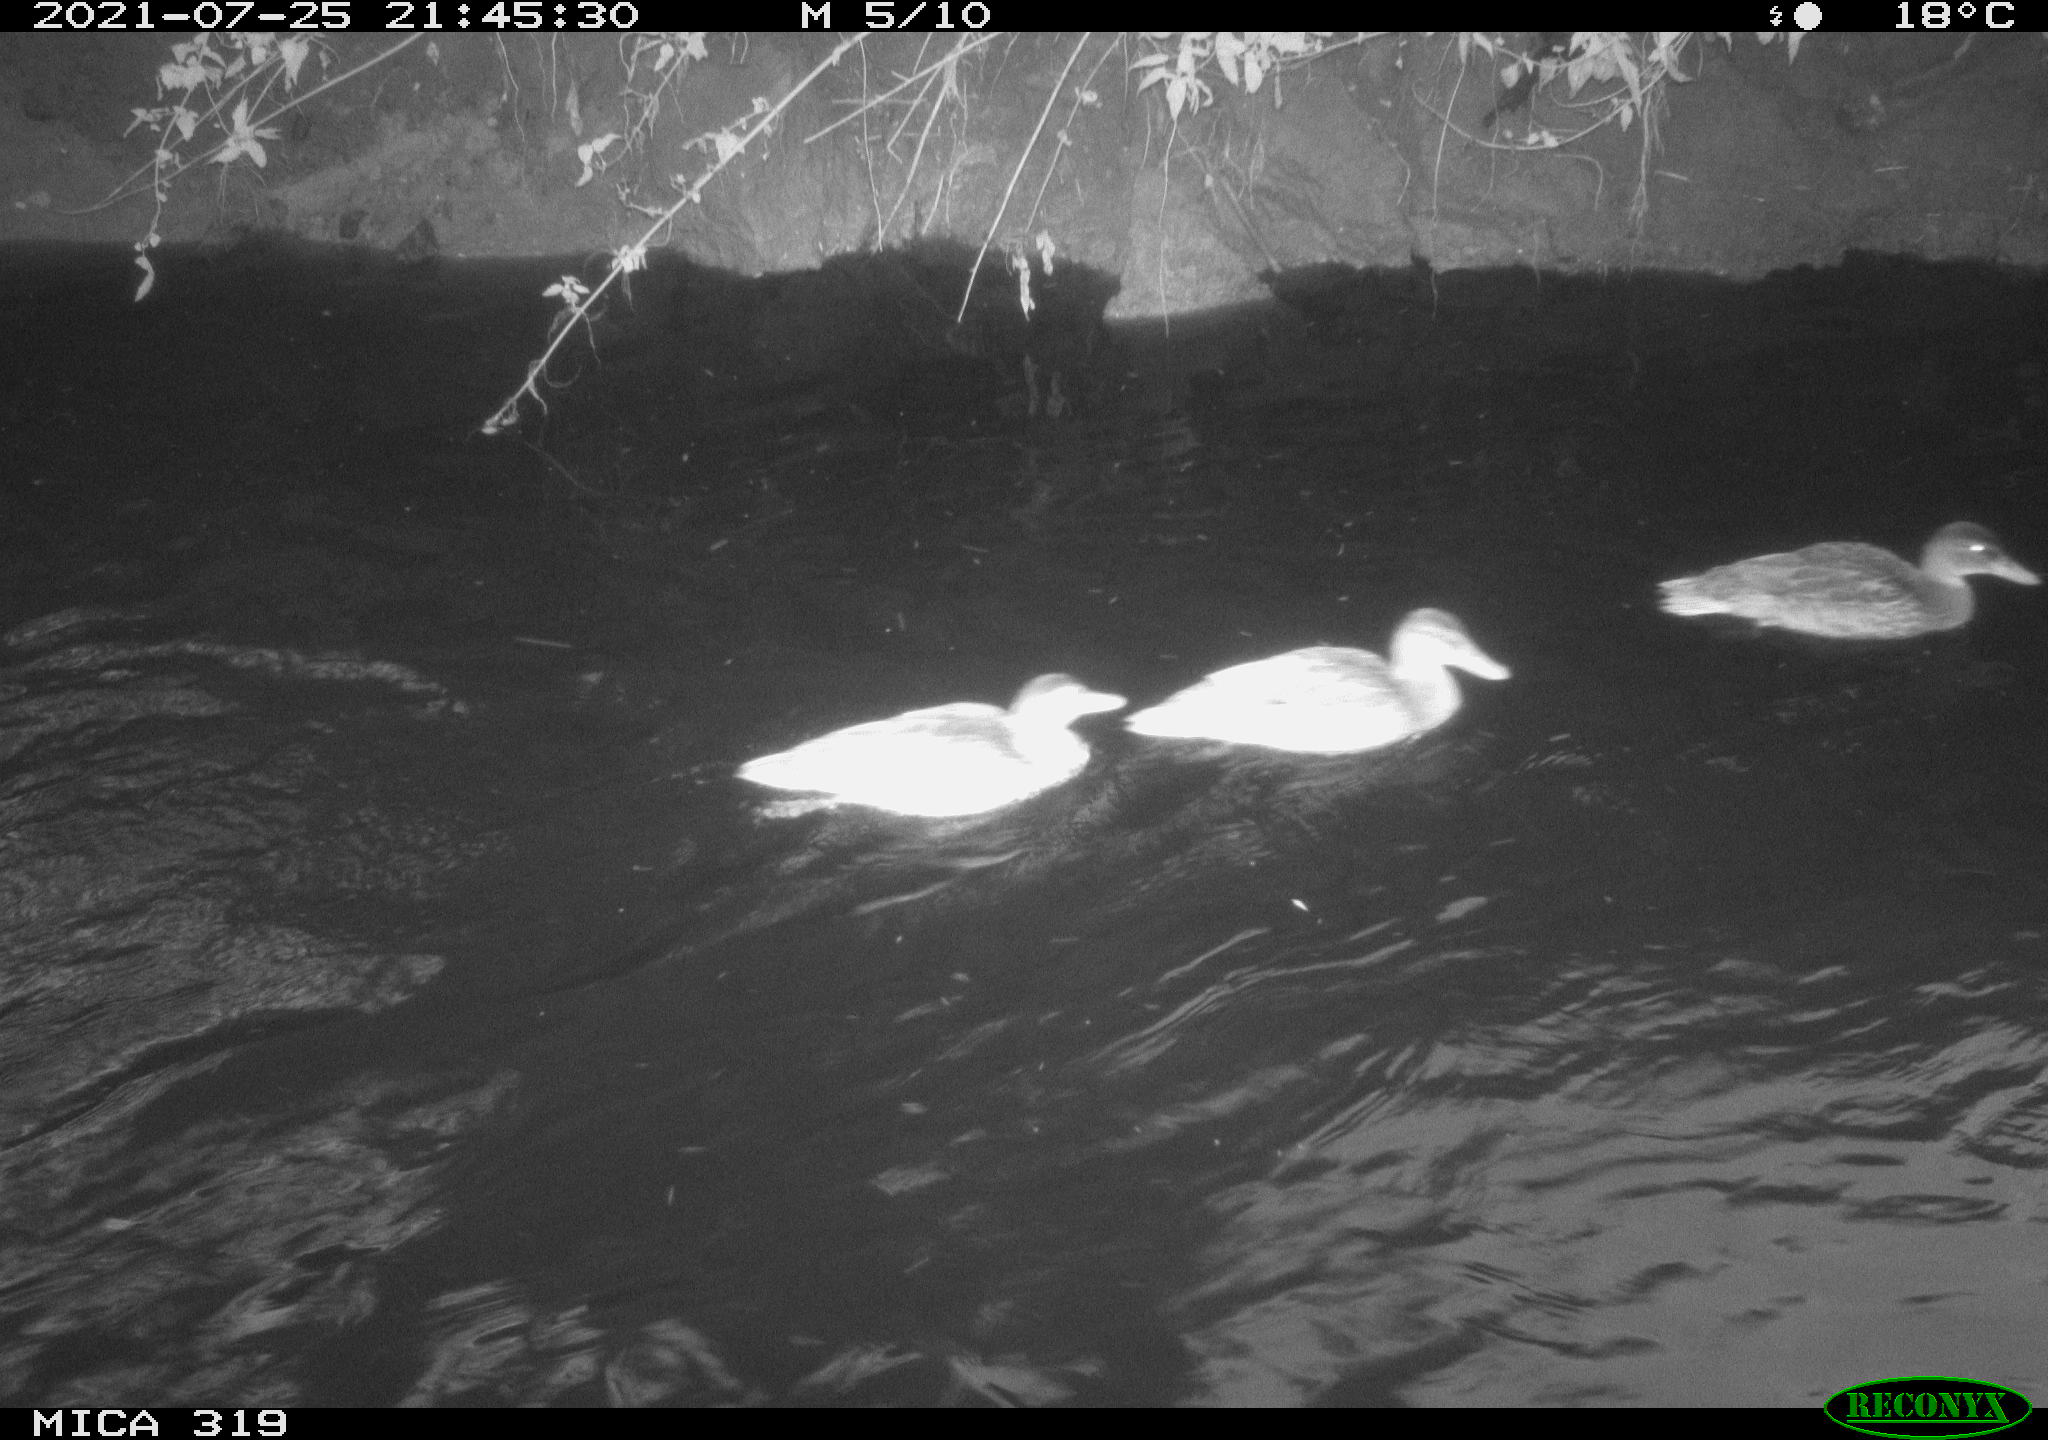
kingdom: Animalia
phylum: Chordata
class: Aves
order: Anseriformes
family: Anatidae
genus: Anas
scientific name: Anas platyrhynchos
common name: Mallard
